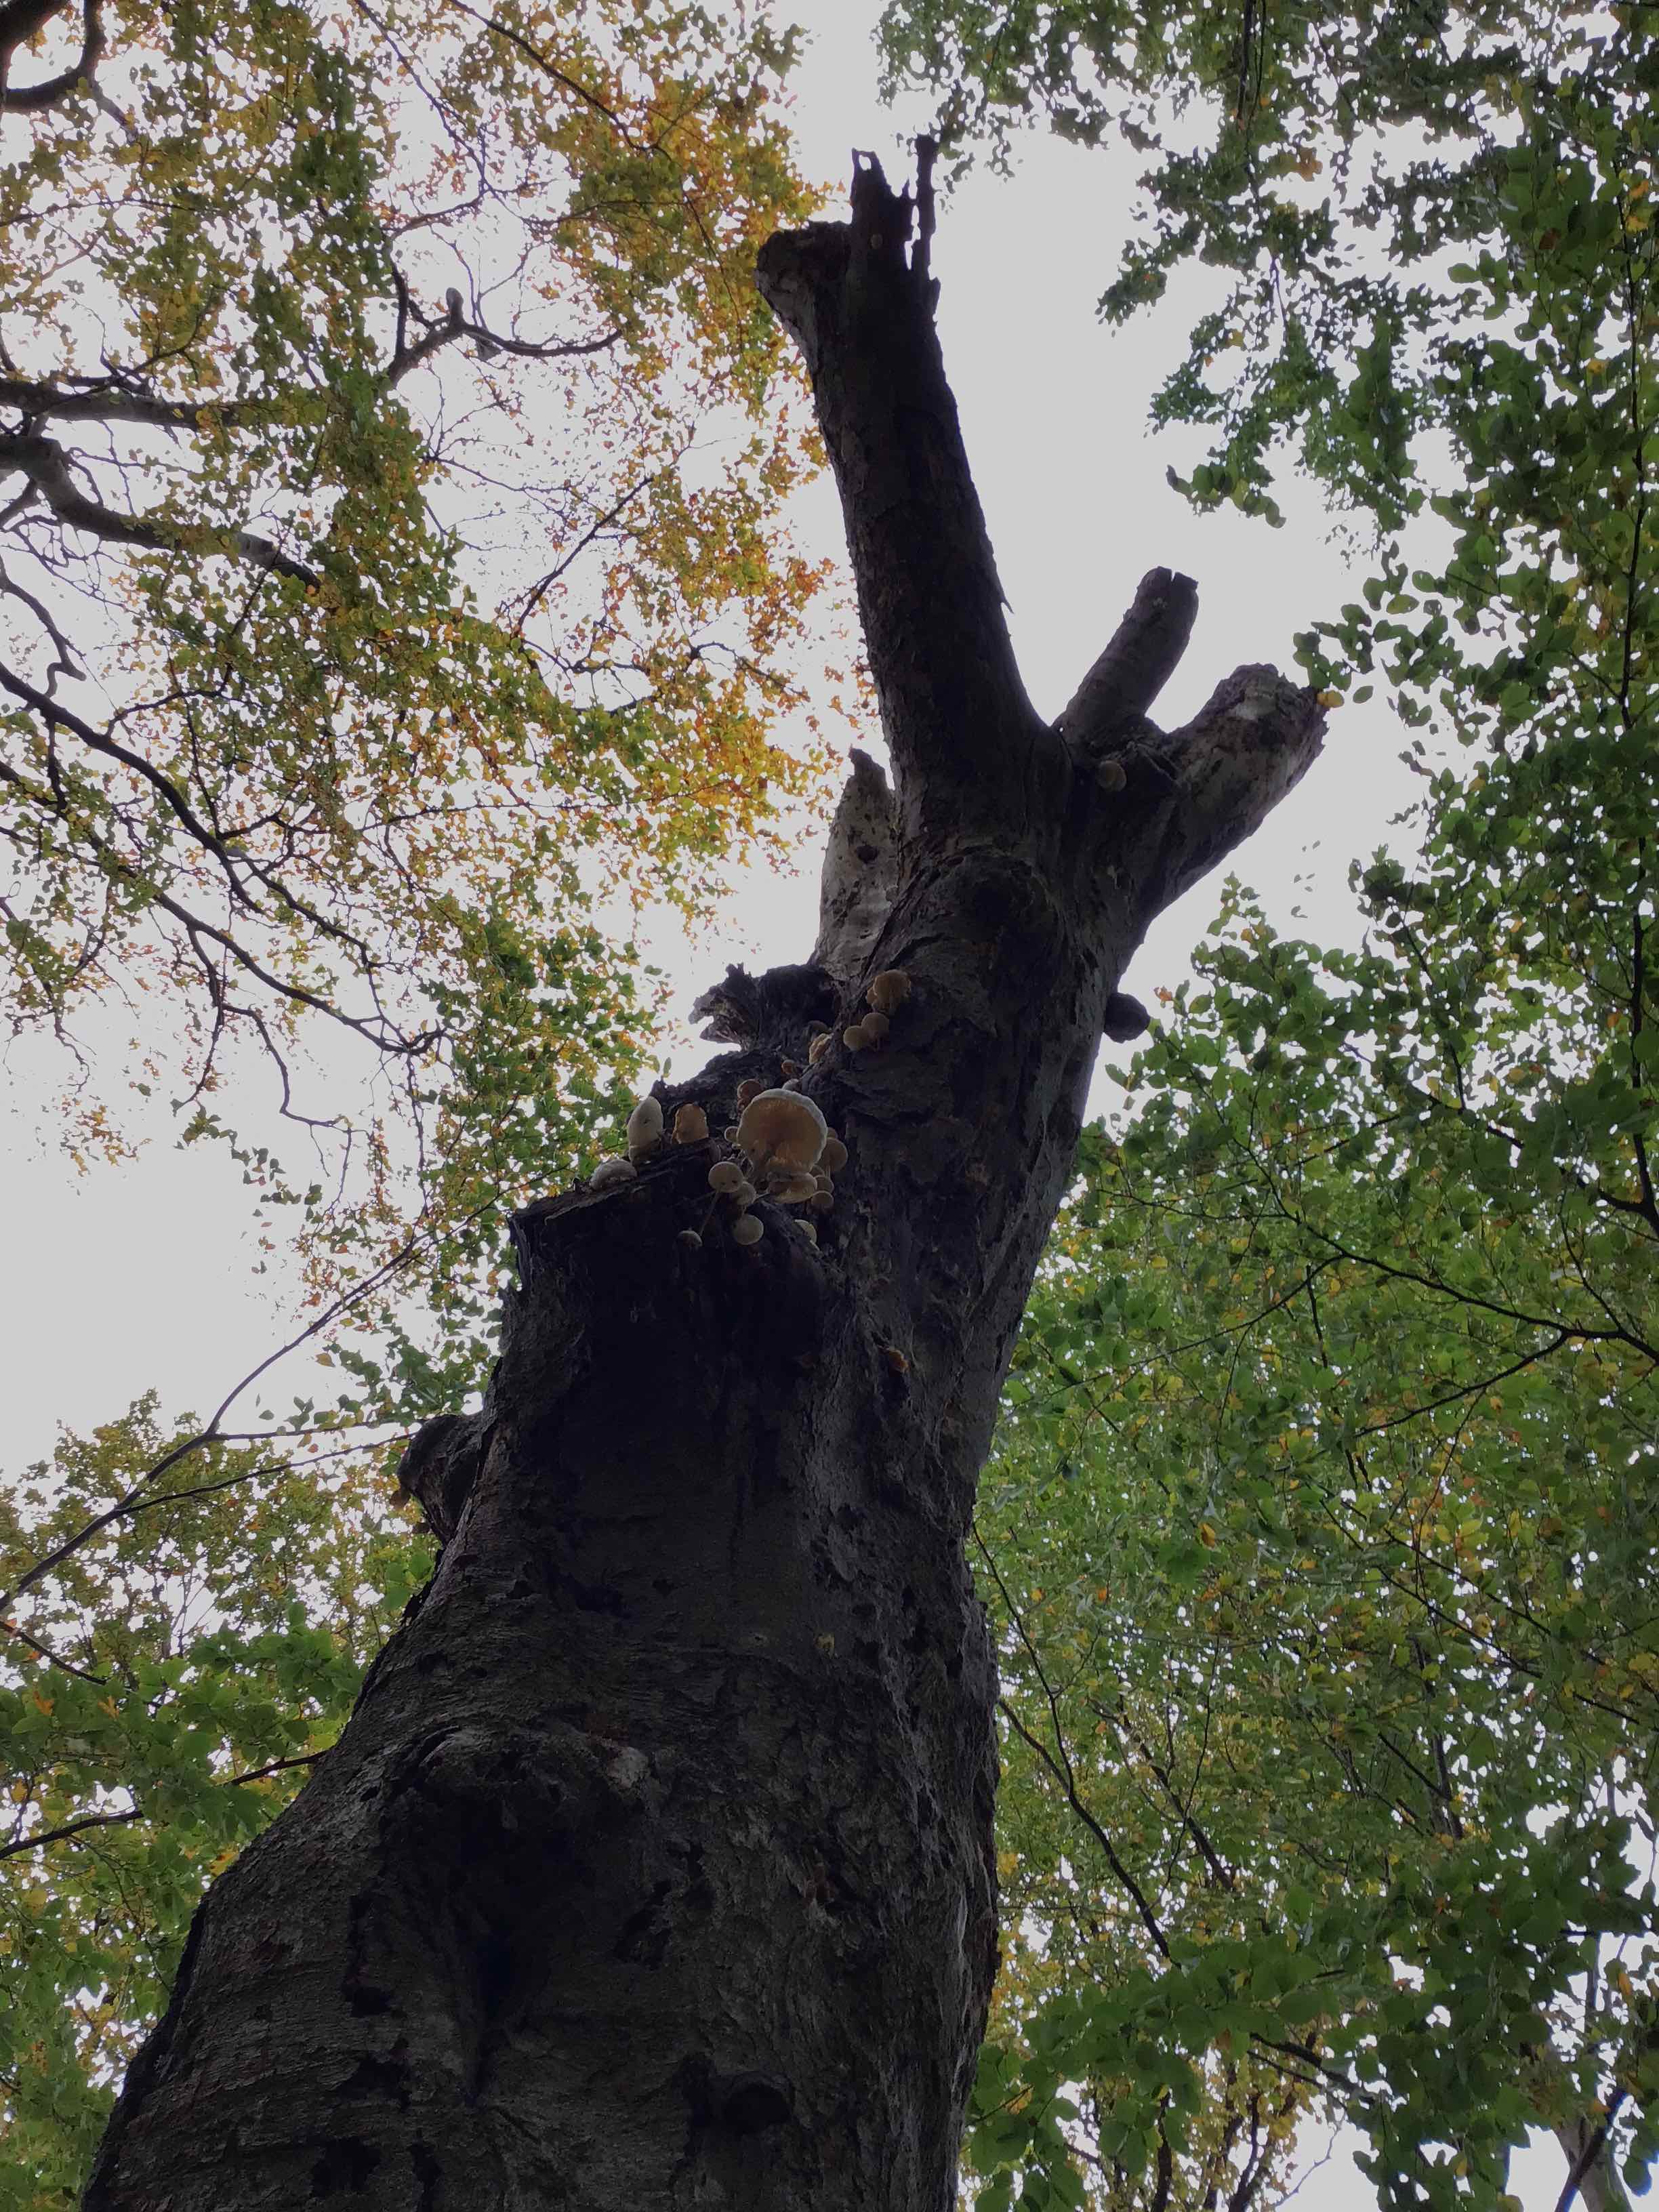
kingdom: Fungi
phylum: Basidiomycota
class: Agaricomycetes
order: Agaricales
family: Physalacriaceae
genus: Mucidula
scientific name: Mucidula mucida
